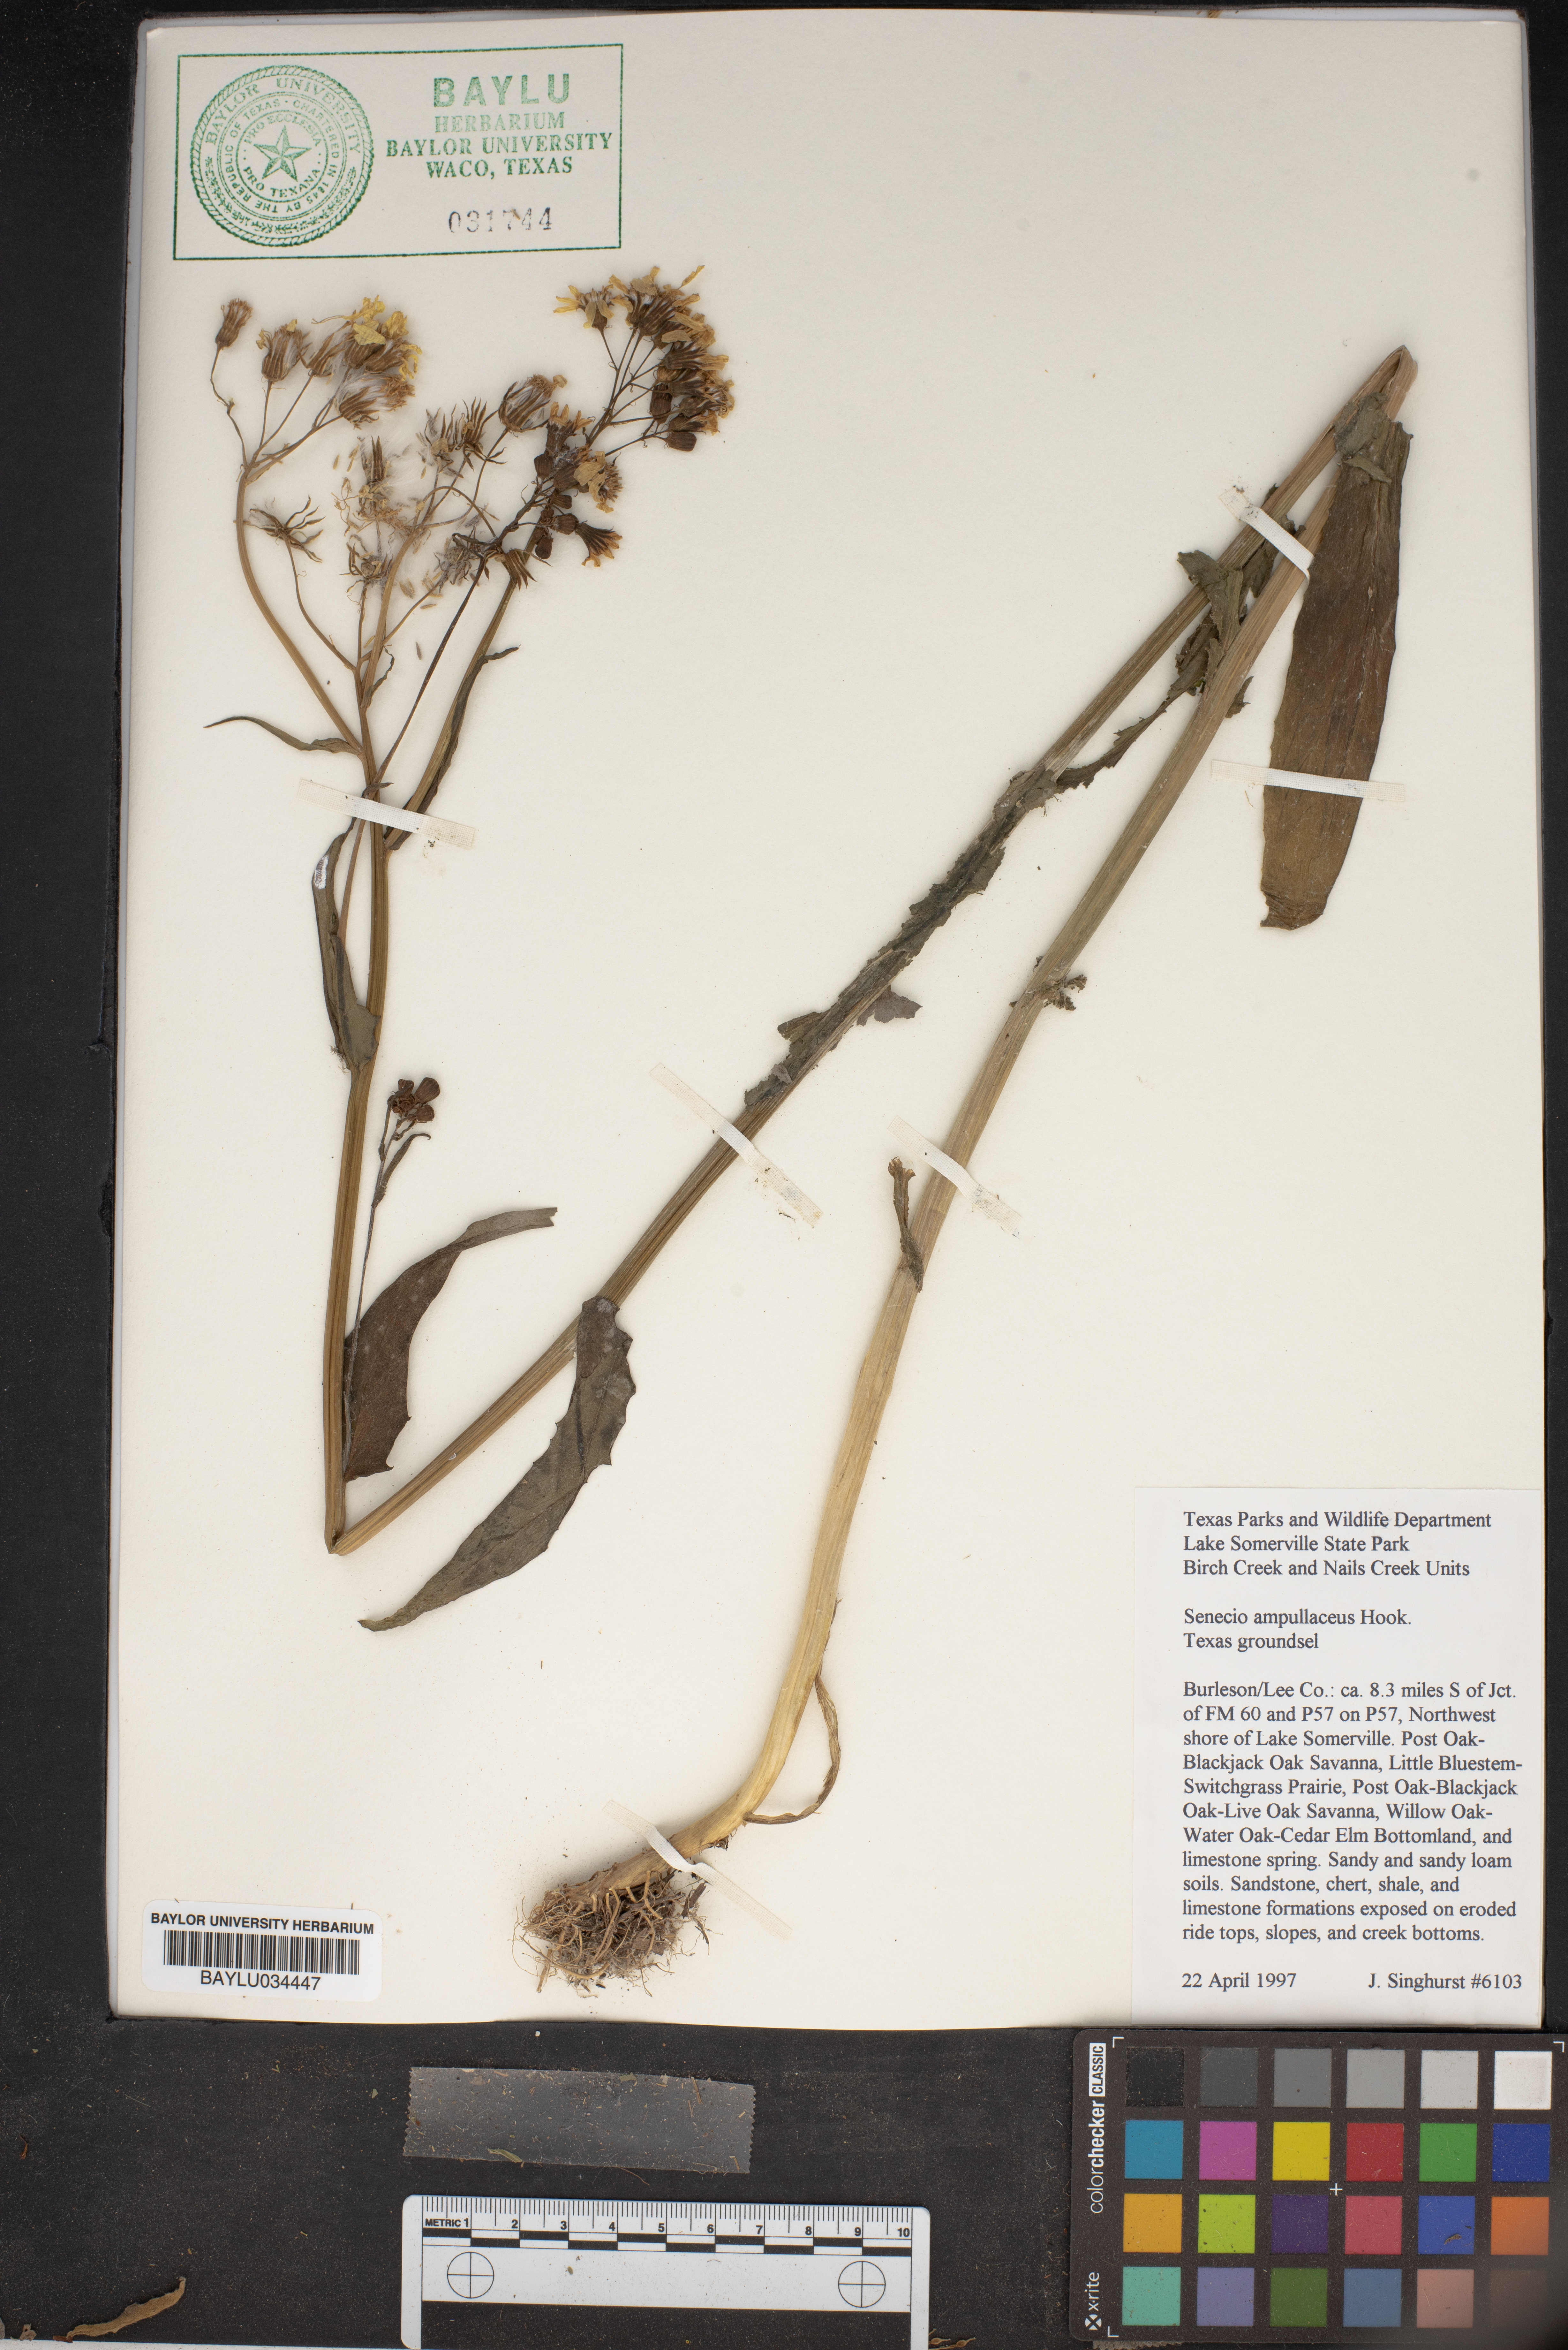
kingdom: Plantae
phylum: Tracheophyta
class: Magnoliopsida
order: Asterales
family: Asteraceae
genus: Senecio
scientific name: Senecio ampullaceus
